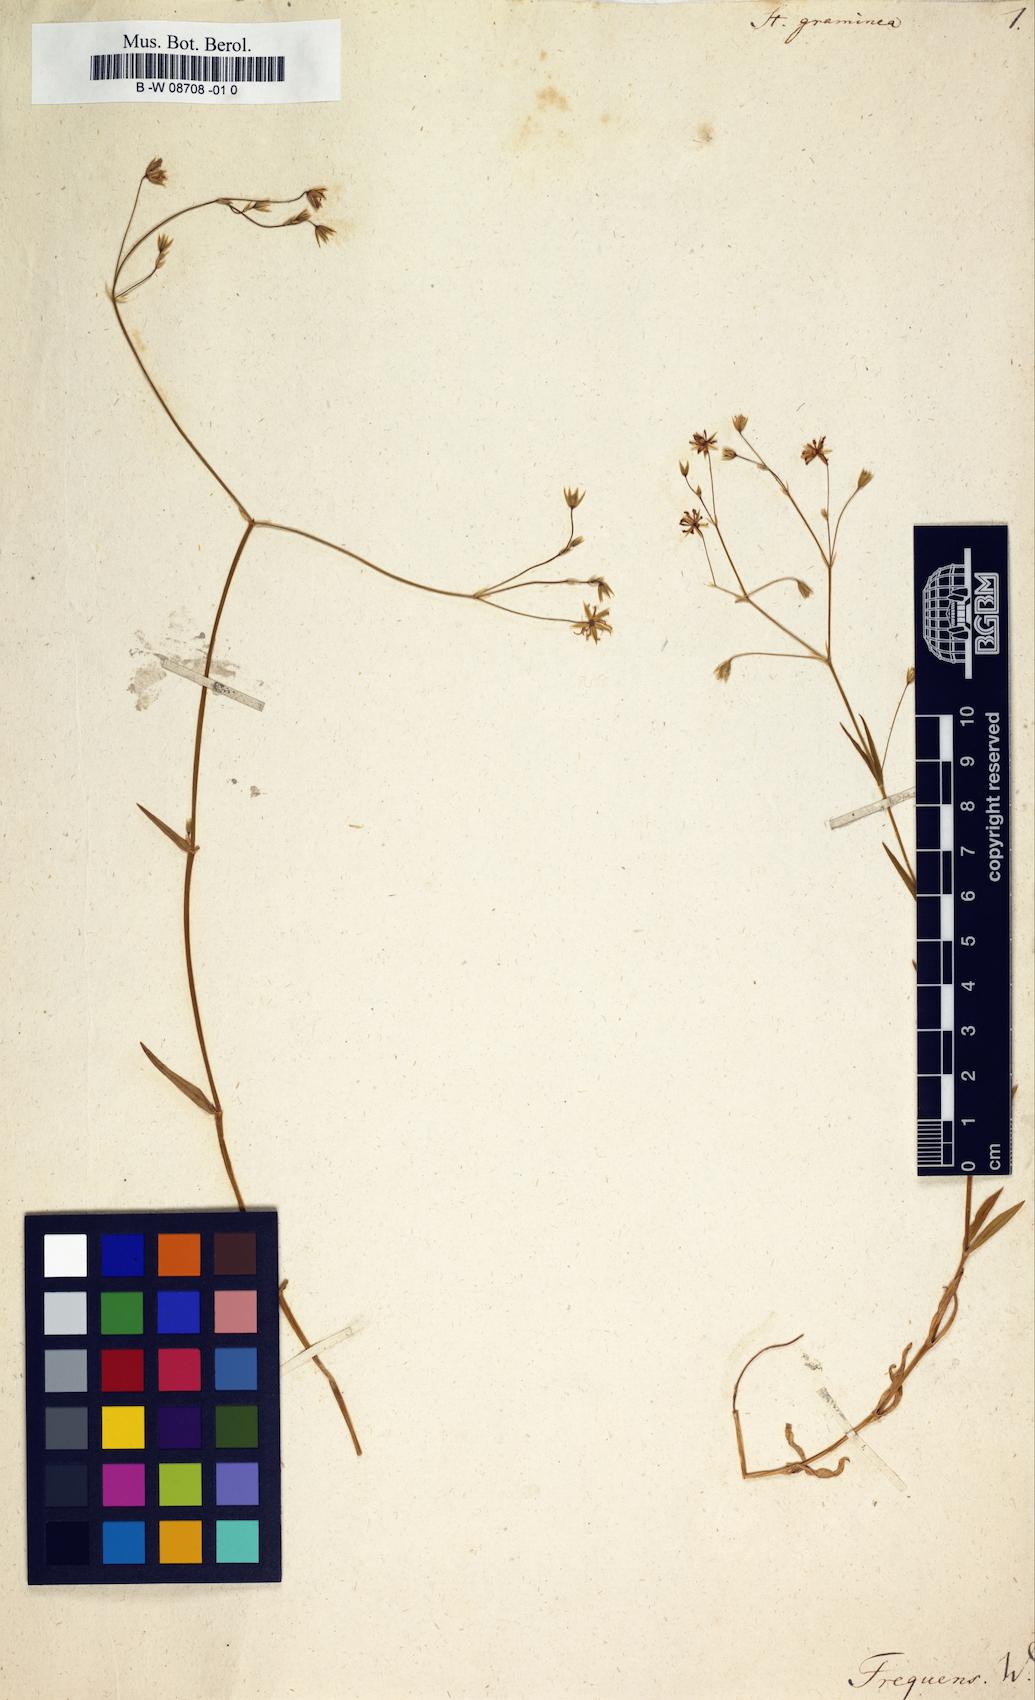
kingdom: Plantae
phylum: Tracheophyta
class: Magnoliopsida
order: Caryophyllales
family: Caryophyllaceae
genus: Stellaria
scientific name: Stellaria graminea
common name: Grass-like starwort
